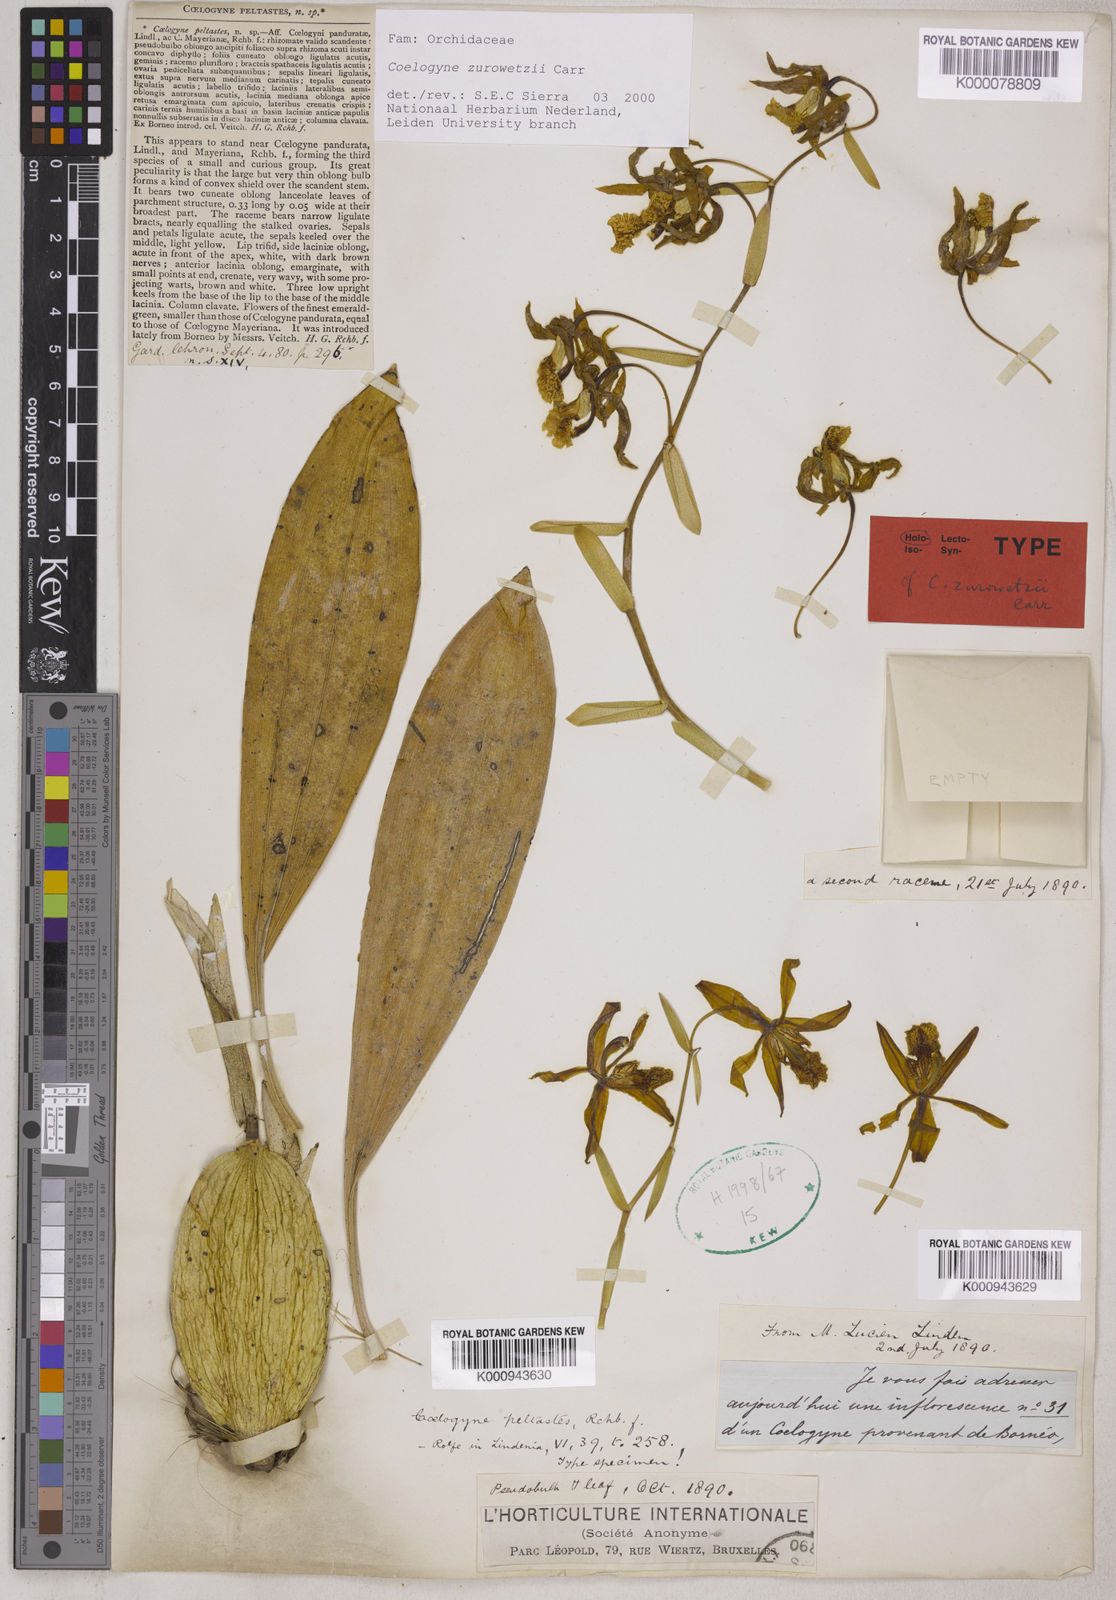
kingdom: Plantae
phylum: Tracheophyta
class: Liliopsida
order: Asparagales
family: Orchidaceae
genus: Coelogyne
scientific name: Coelogyne zurowetzii
